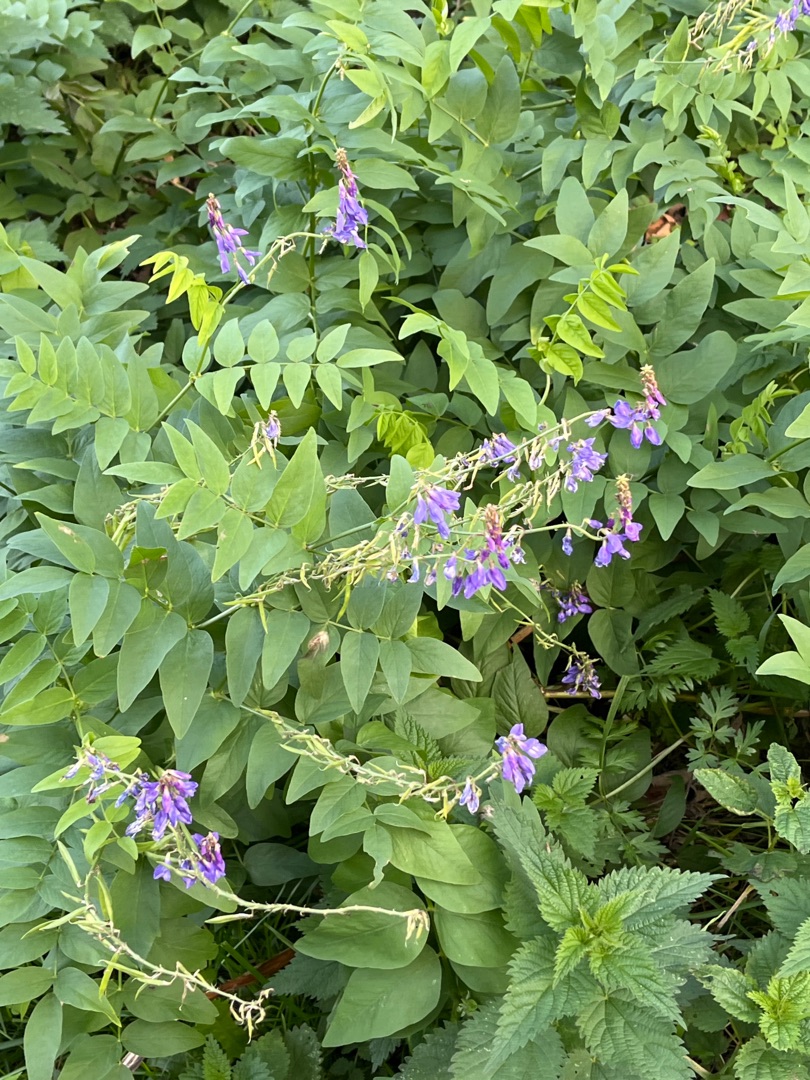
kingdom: Plantae
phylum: Tracheophyta
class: Magnoliopsida
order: Fabales
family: Fabaceae
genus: Galega
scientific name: Galega orientalis
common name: Blå stregbælg
